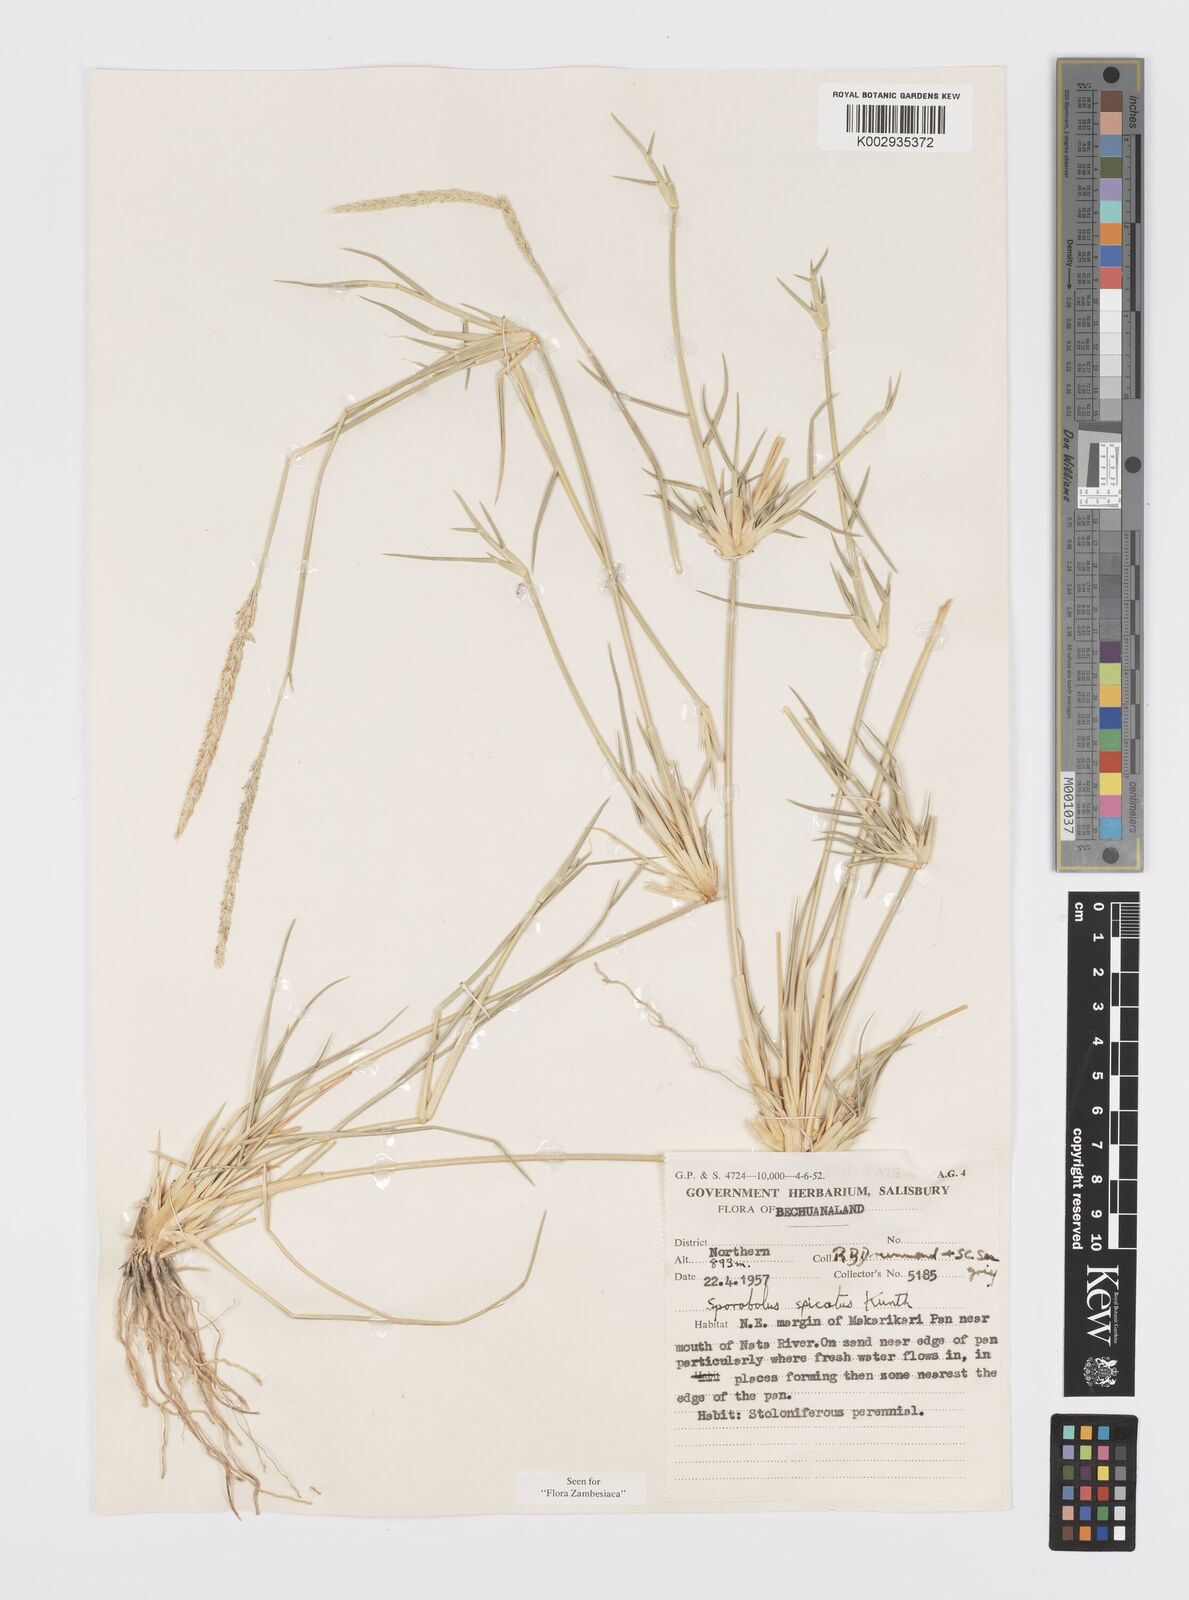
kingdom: Plantae
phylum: Tracheophyta
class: Liliopsida
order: Poales
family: Poaceae
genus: Sporobolus
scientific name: Sporobolus spicatus
